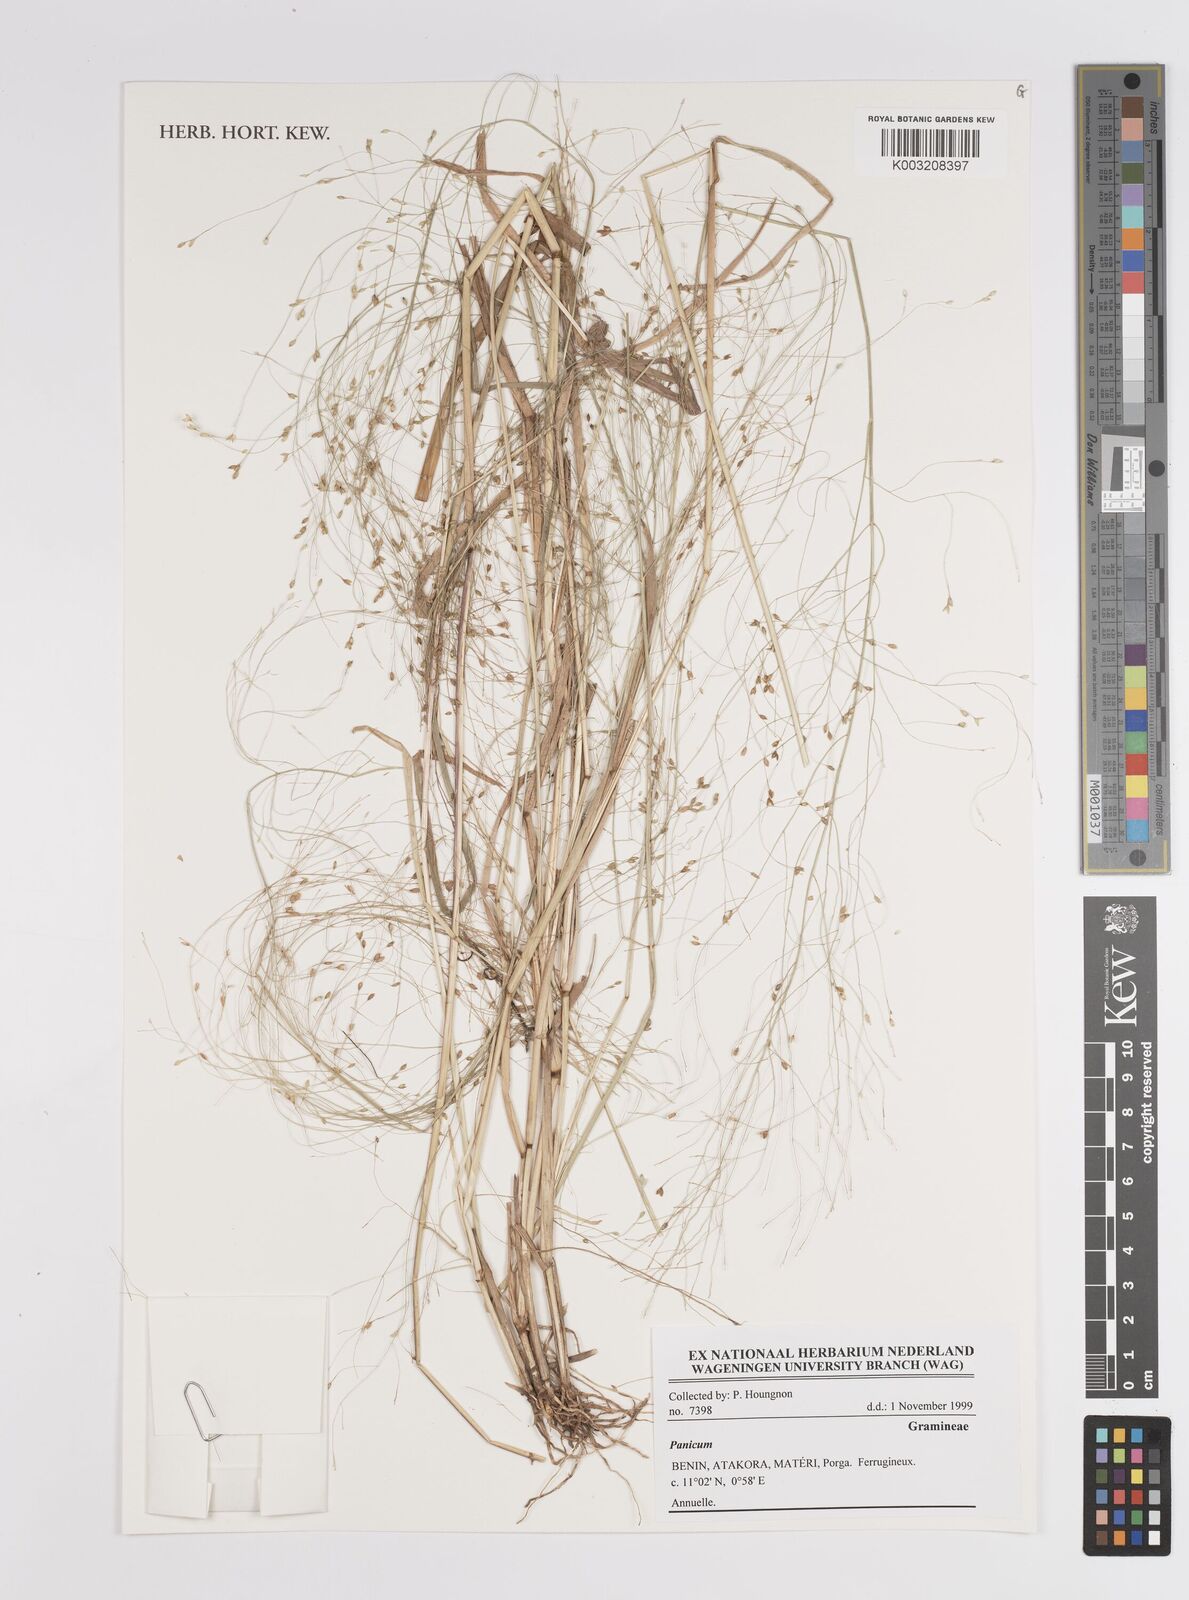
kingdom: Plantae
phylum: Tracheophyta
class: Liliopsida
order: Poales
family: Poaceae
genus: Panicum
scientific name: Panicum
